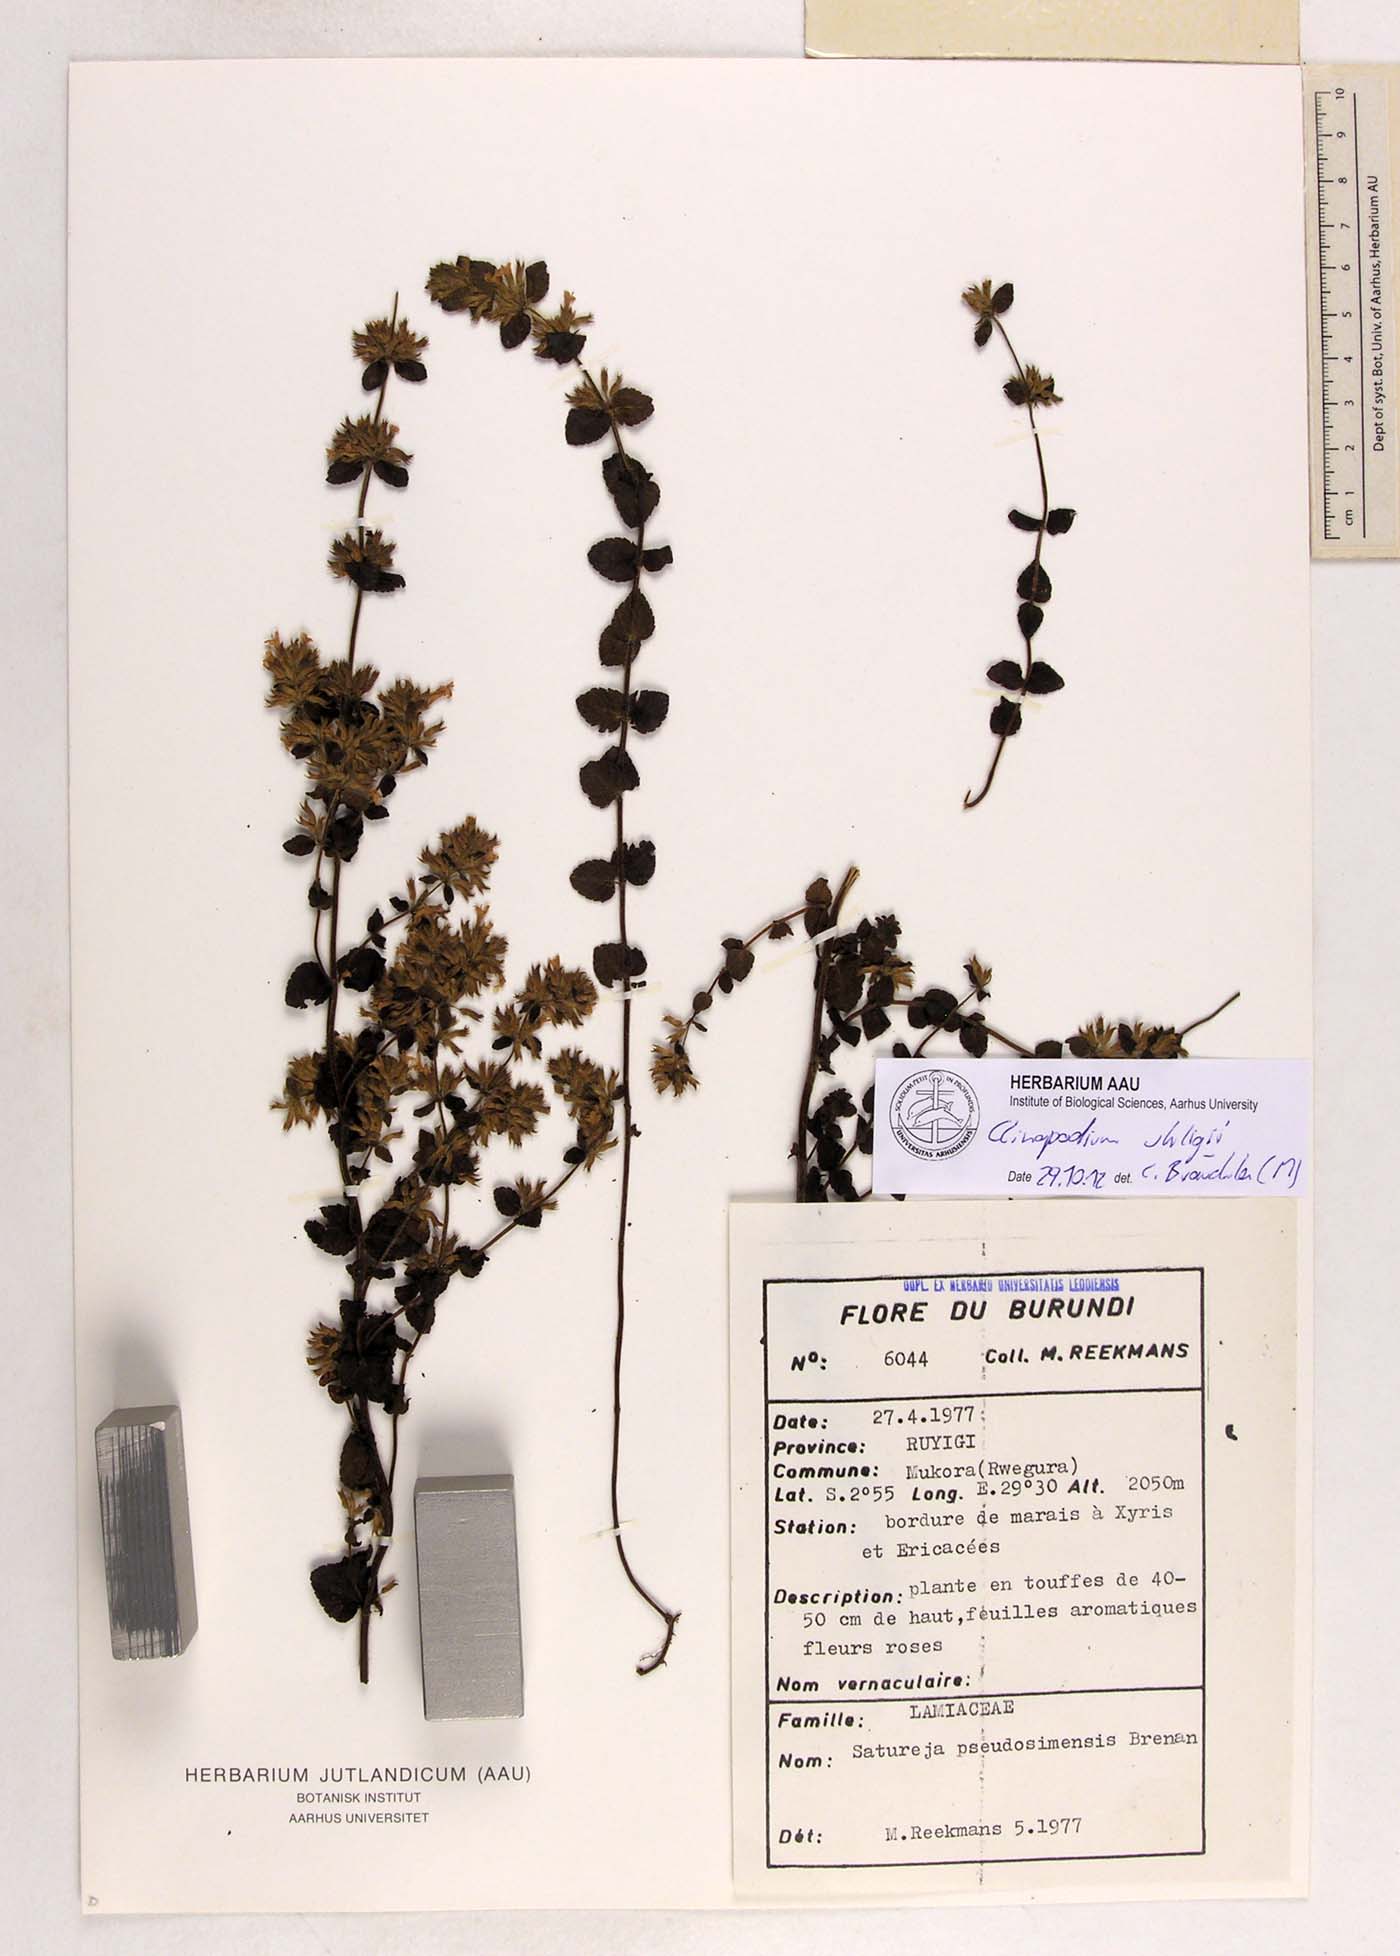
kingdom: Plantae
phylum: Tracheophyta
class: Magnoliopsida
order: Lamiales
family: Lamiaceae
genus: Clinopodium
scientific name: Clinopodium uhligii
